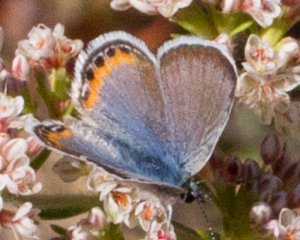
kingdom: Animalia
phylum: Arthropoda
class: Insecta
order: Lepidoptera
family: Lycaenidae
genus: Plebejus
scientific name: Plebejus acmon
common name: Acmon Blue
